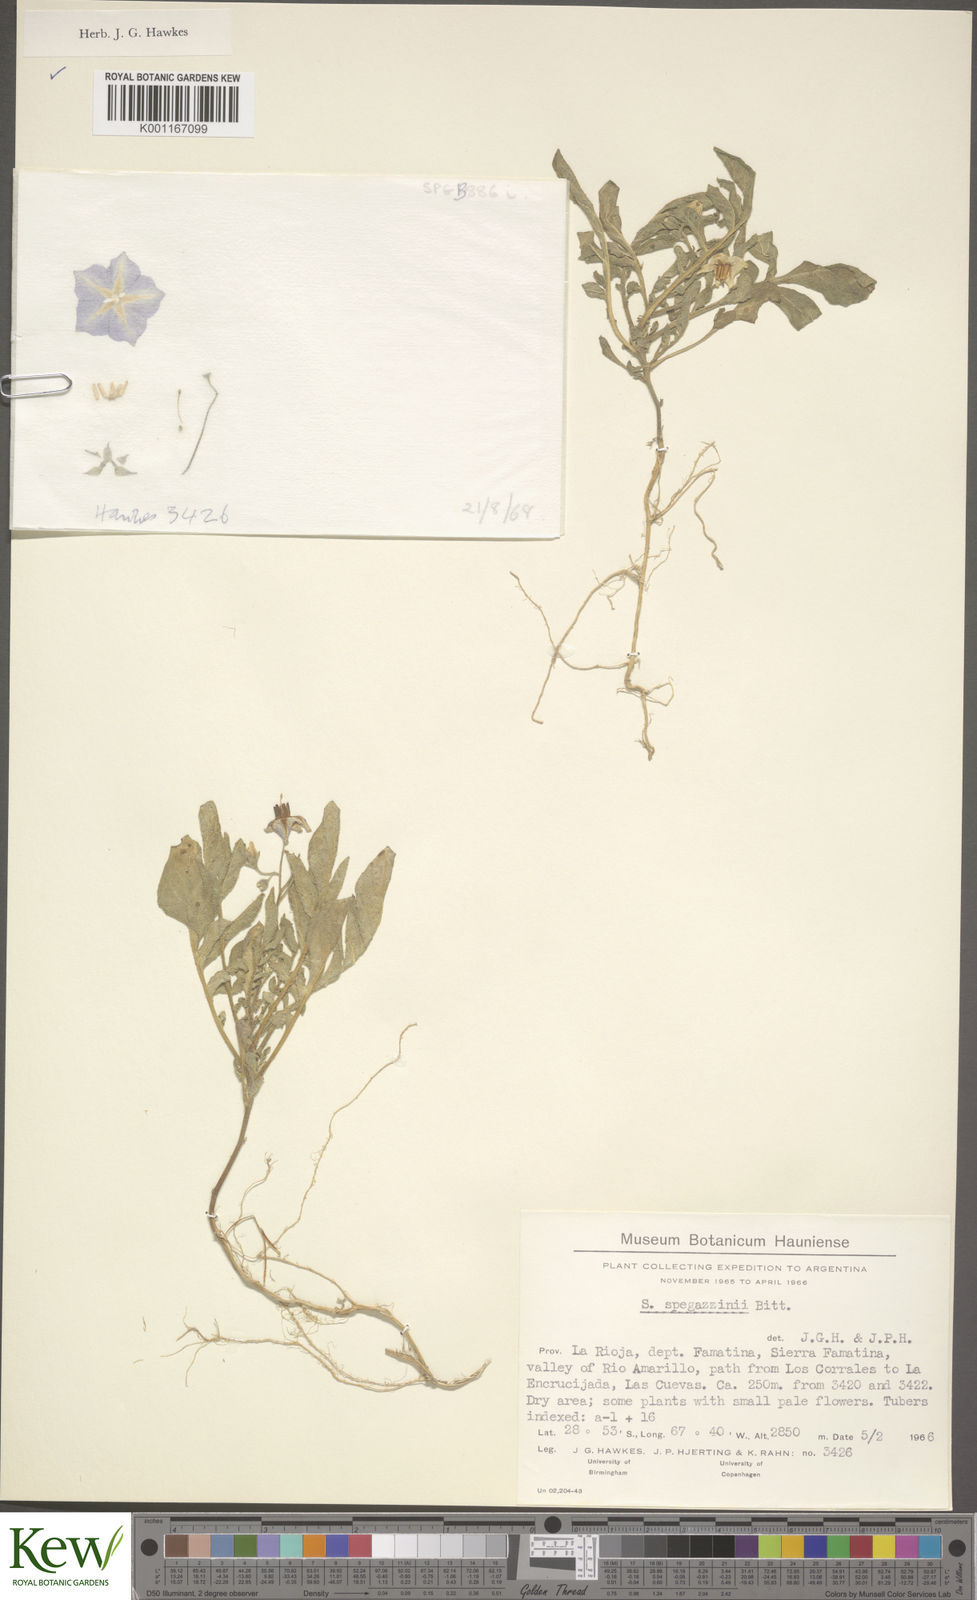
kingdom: Plantae
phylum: Tracheophyta
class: Magnoliopsida
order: Solanales
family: Solanaceae
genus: Solanum
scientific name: Solanum brevicaule
